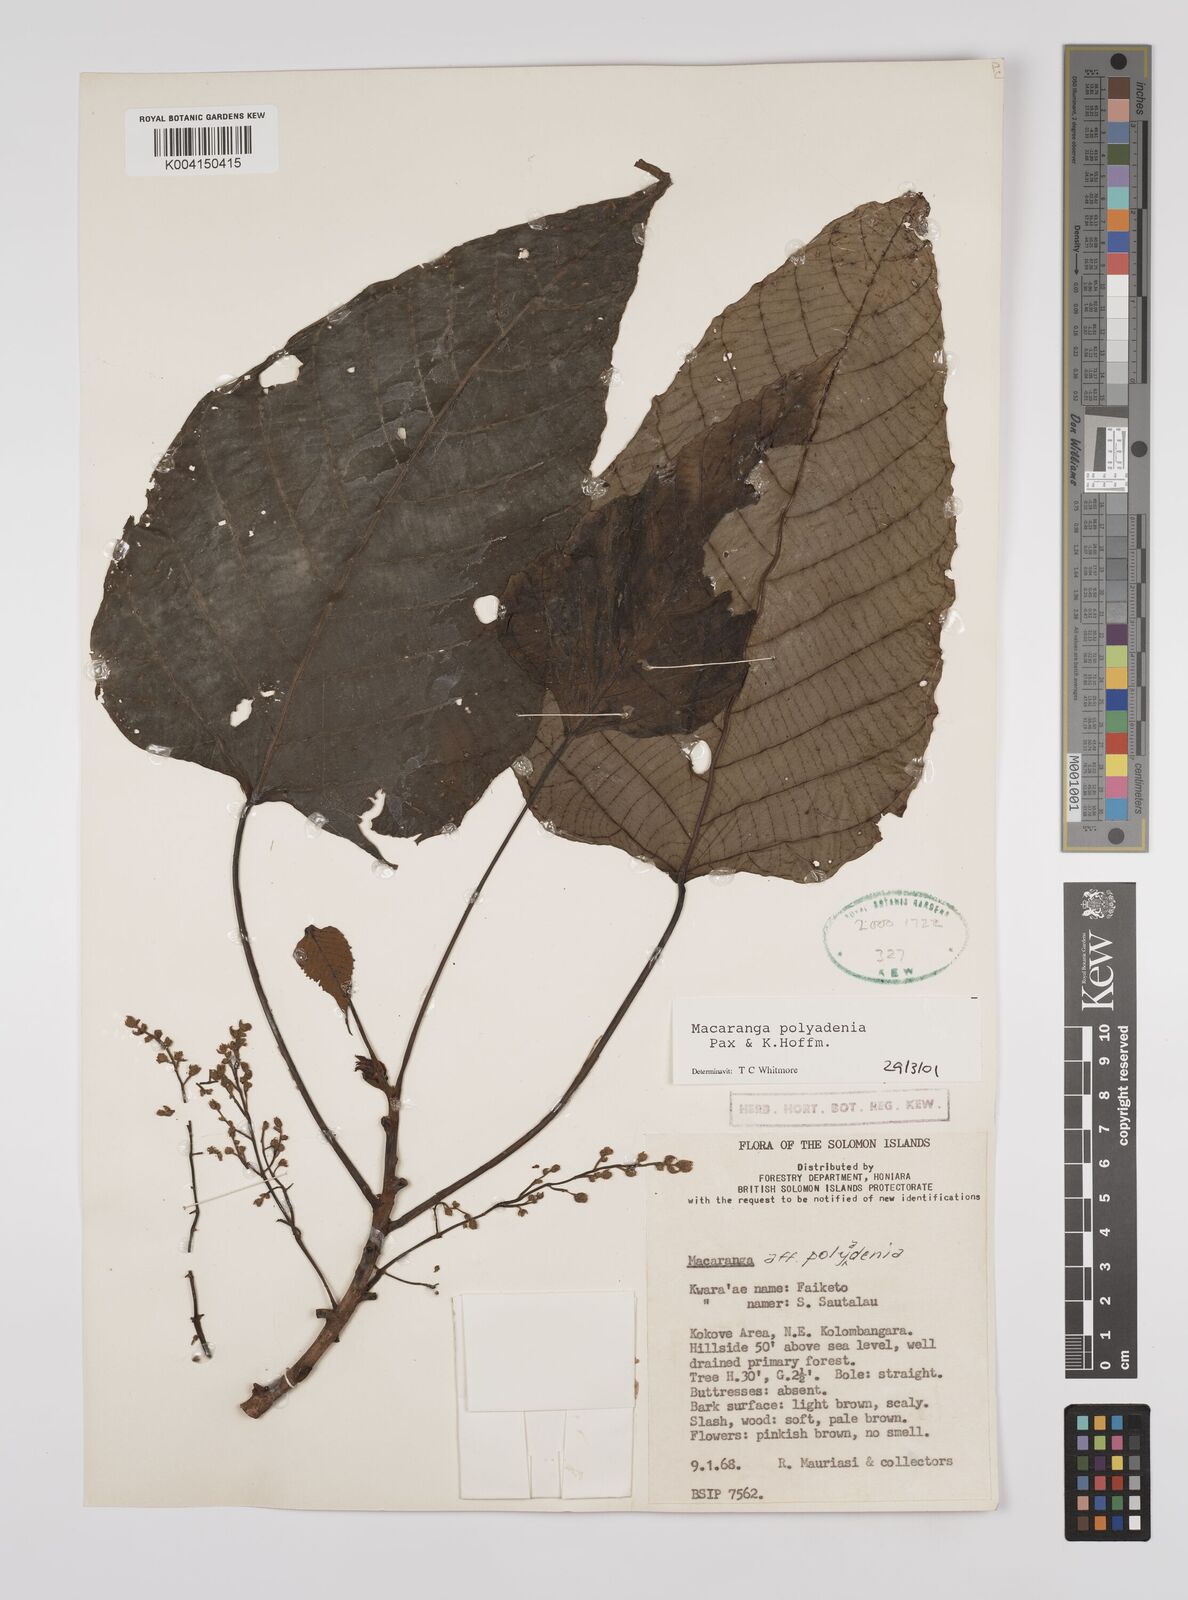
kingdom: Plantae
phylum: Tracheophyta
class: Magnoliopsida
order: Malpighiales
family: Euphorbiaceae
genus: Macaranga
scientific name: Macaranga polyadenia
